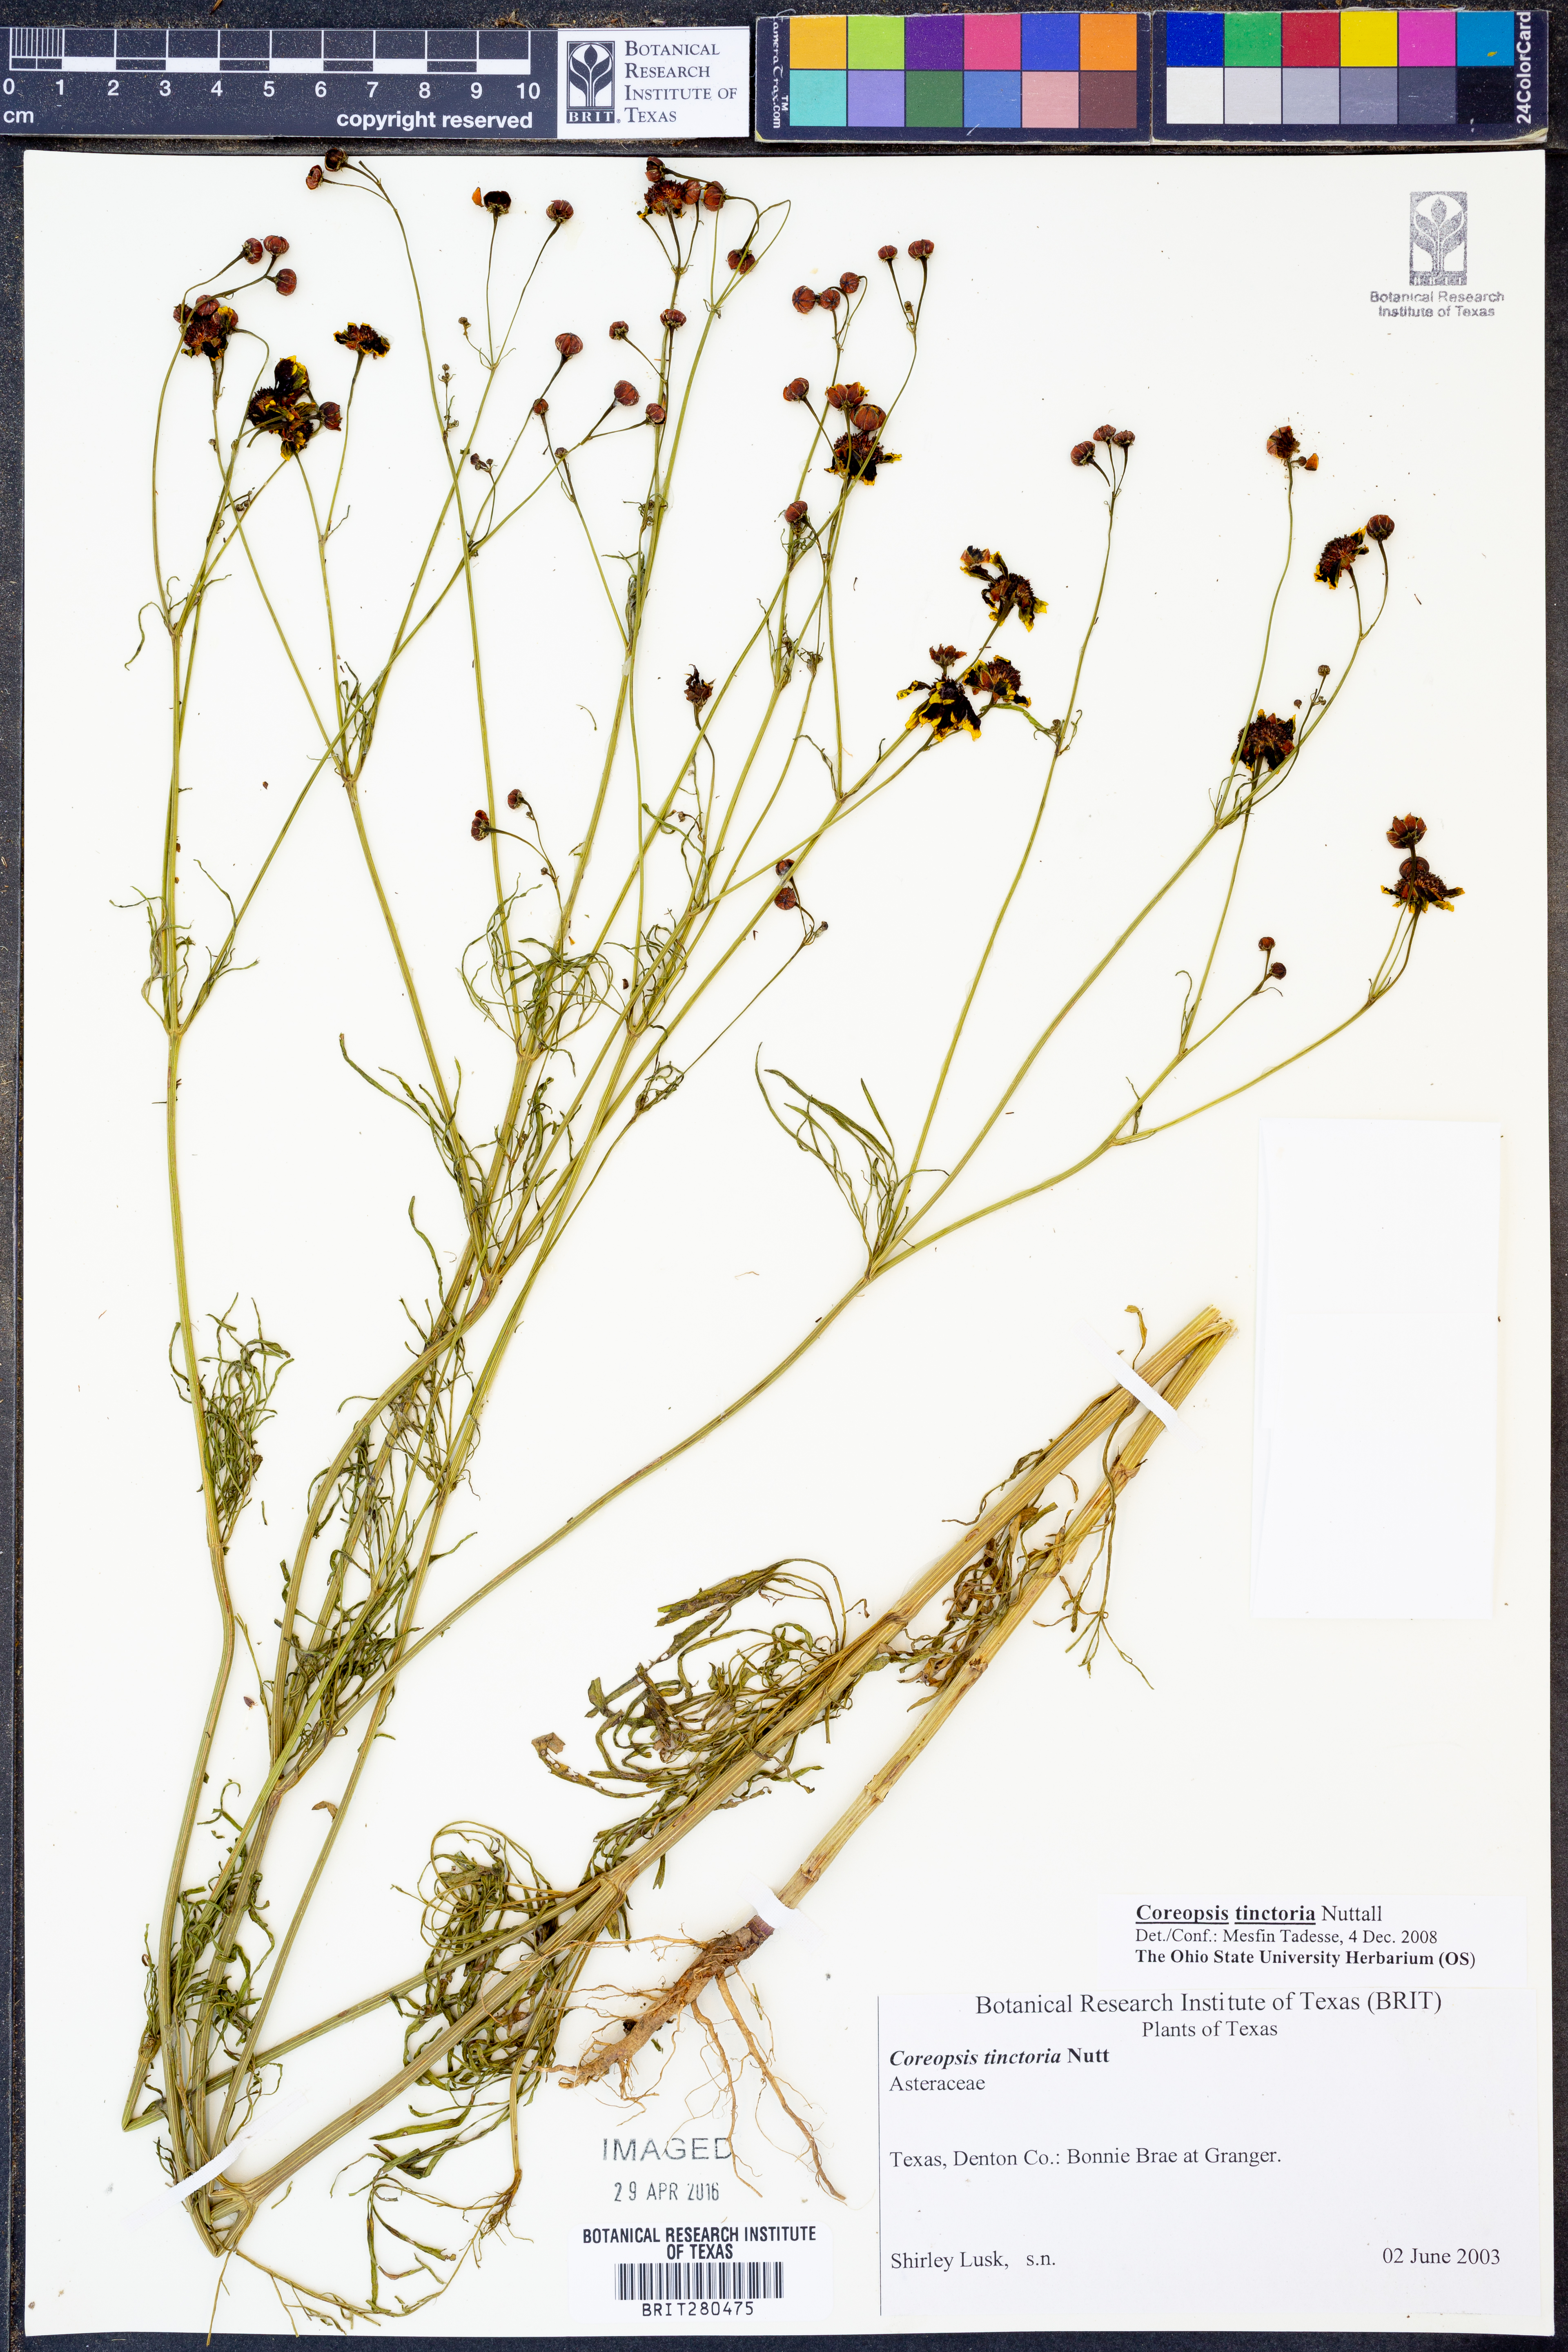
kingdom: Plantae
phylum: Tracheophyta
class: Magnoliopsida
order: Asterales
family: Asteraceae
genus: Coreopsis
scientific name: Coreopsis tinctoria
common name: Garden tickseed
